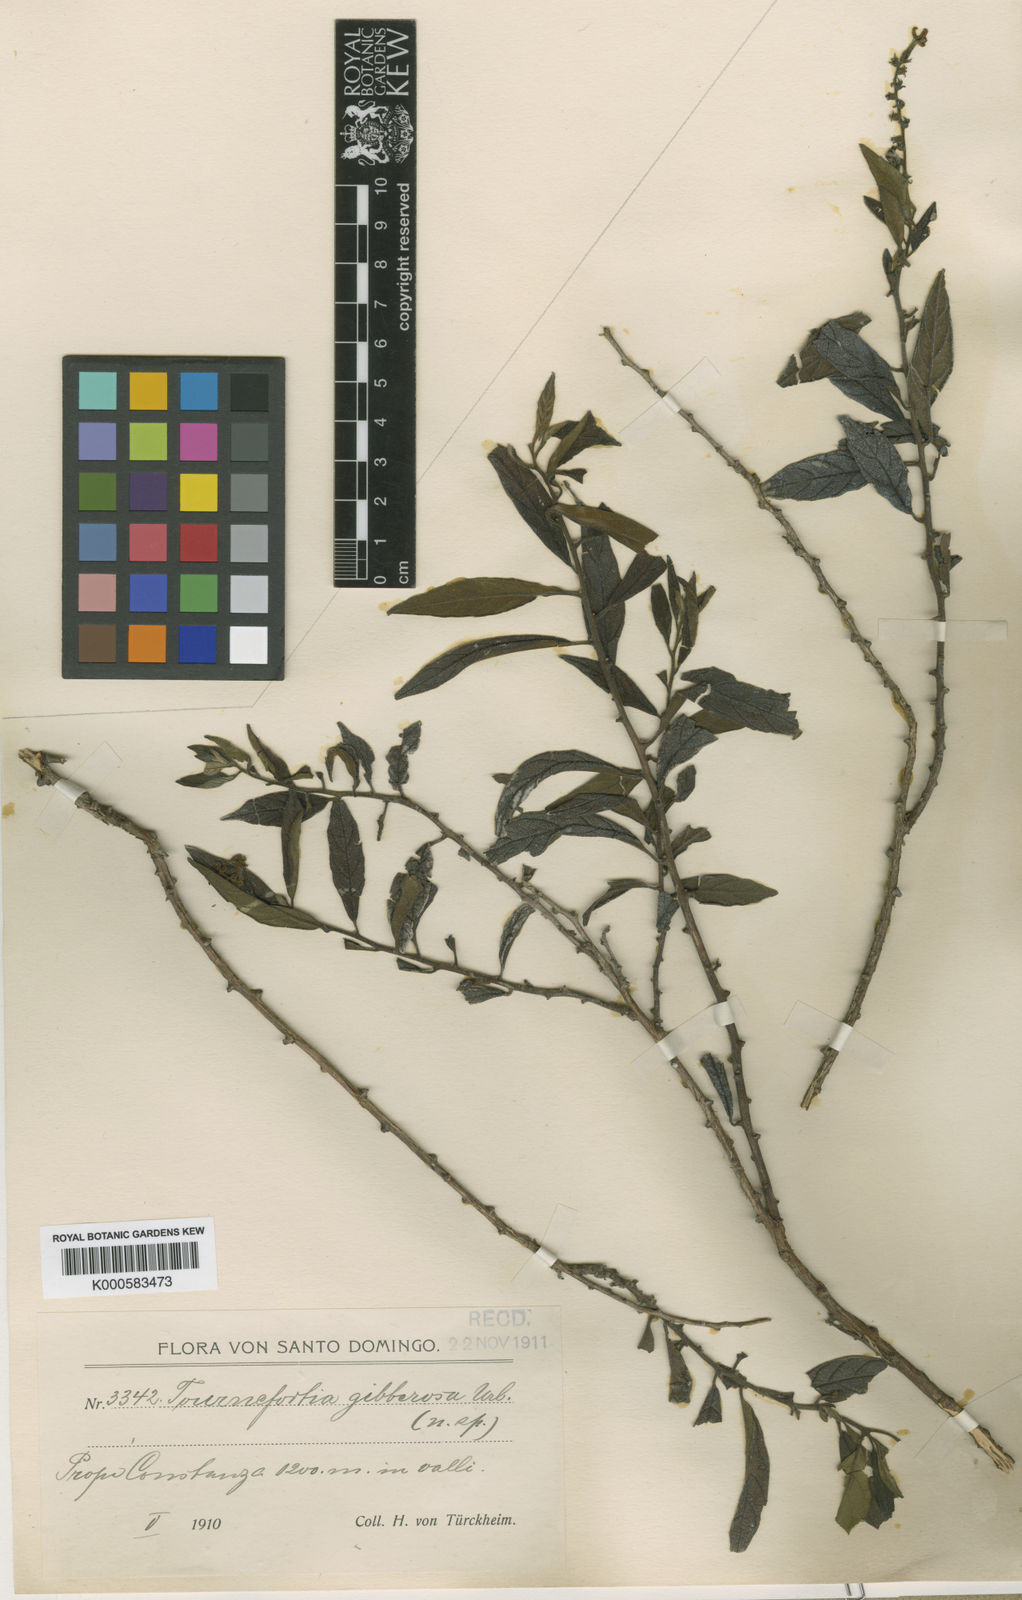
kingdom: Plantae
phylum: Tracheophyta
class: Magnoliopsida
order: Boraginales
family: Heliotropiaceae
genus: Heliotropium
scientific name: Heliotropium gibberosum
